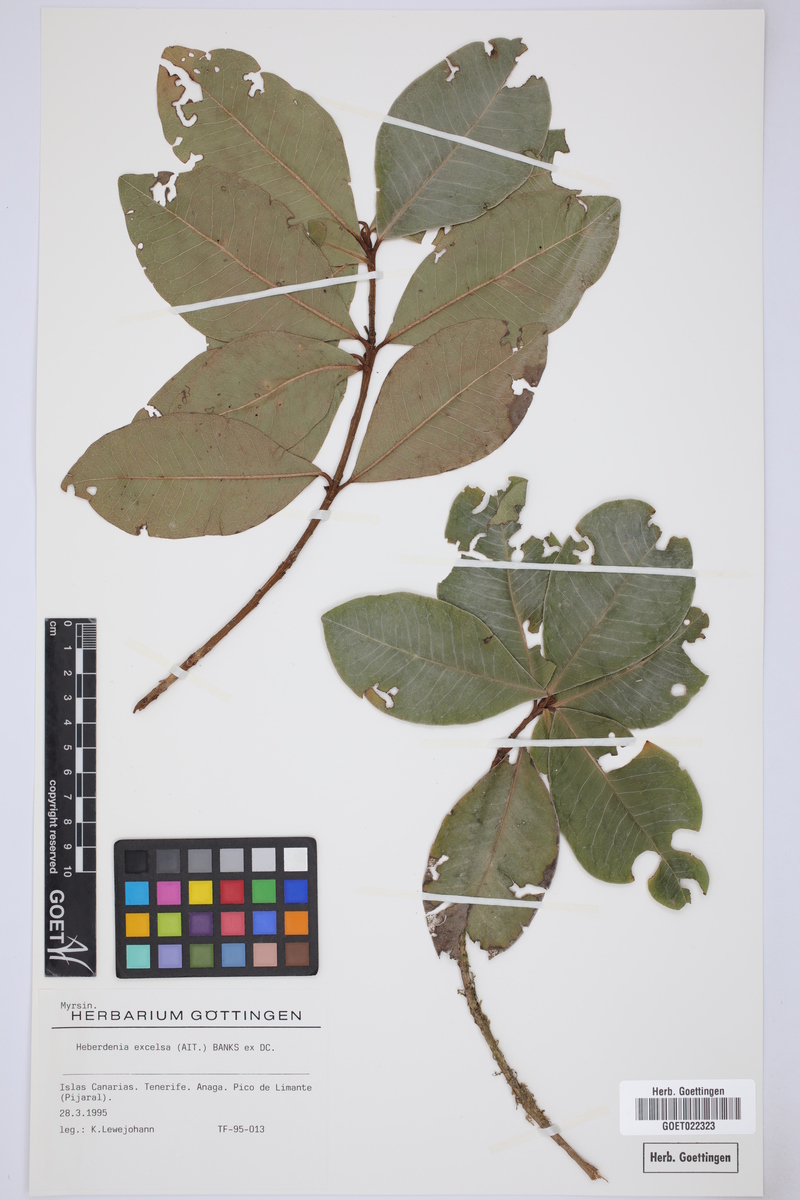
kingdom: Plantae
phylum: Tracheophyta
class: Magnoliopsida
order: Ericales
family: Primulaceae
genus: Heberdenia
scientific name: Heberdenia excelsa
